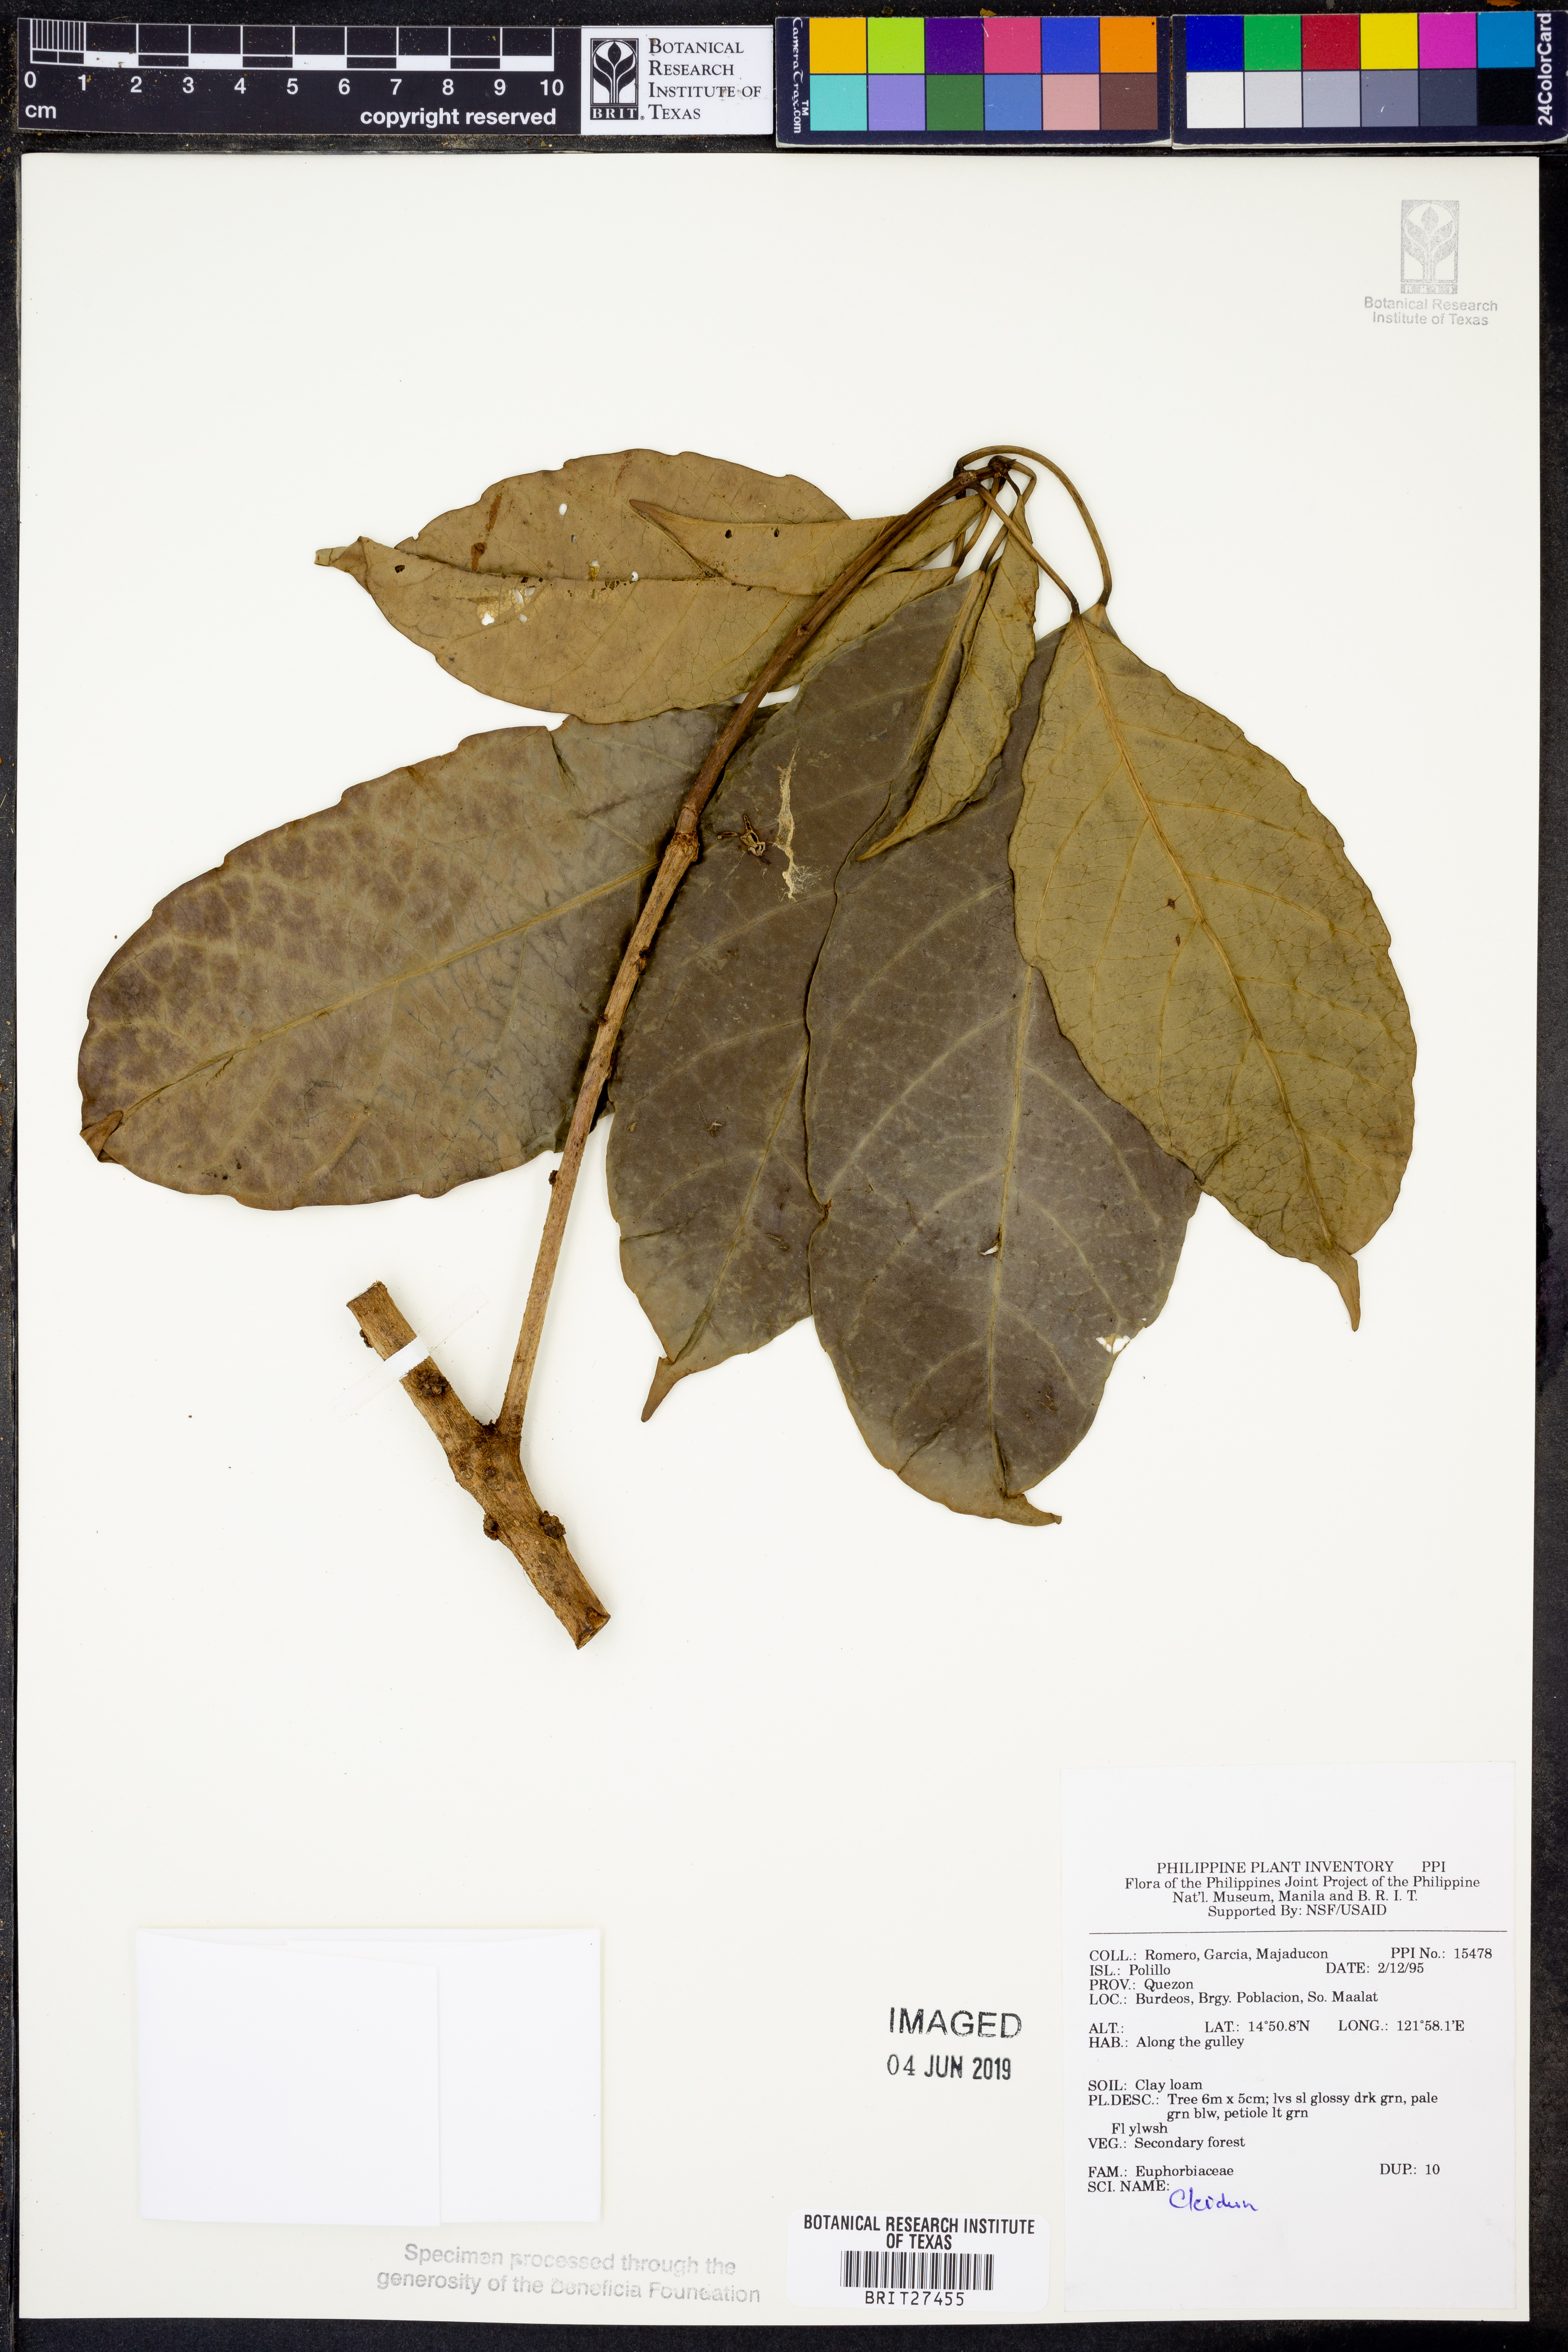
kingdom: Plantae
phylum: Tracheophyta
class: Magnoliopsida
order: Malpighiales
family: Euphorbiaceae
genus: Cleidion
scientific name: Cleidion
